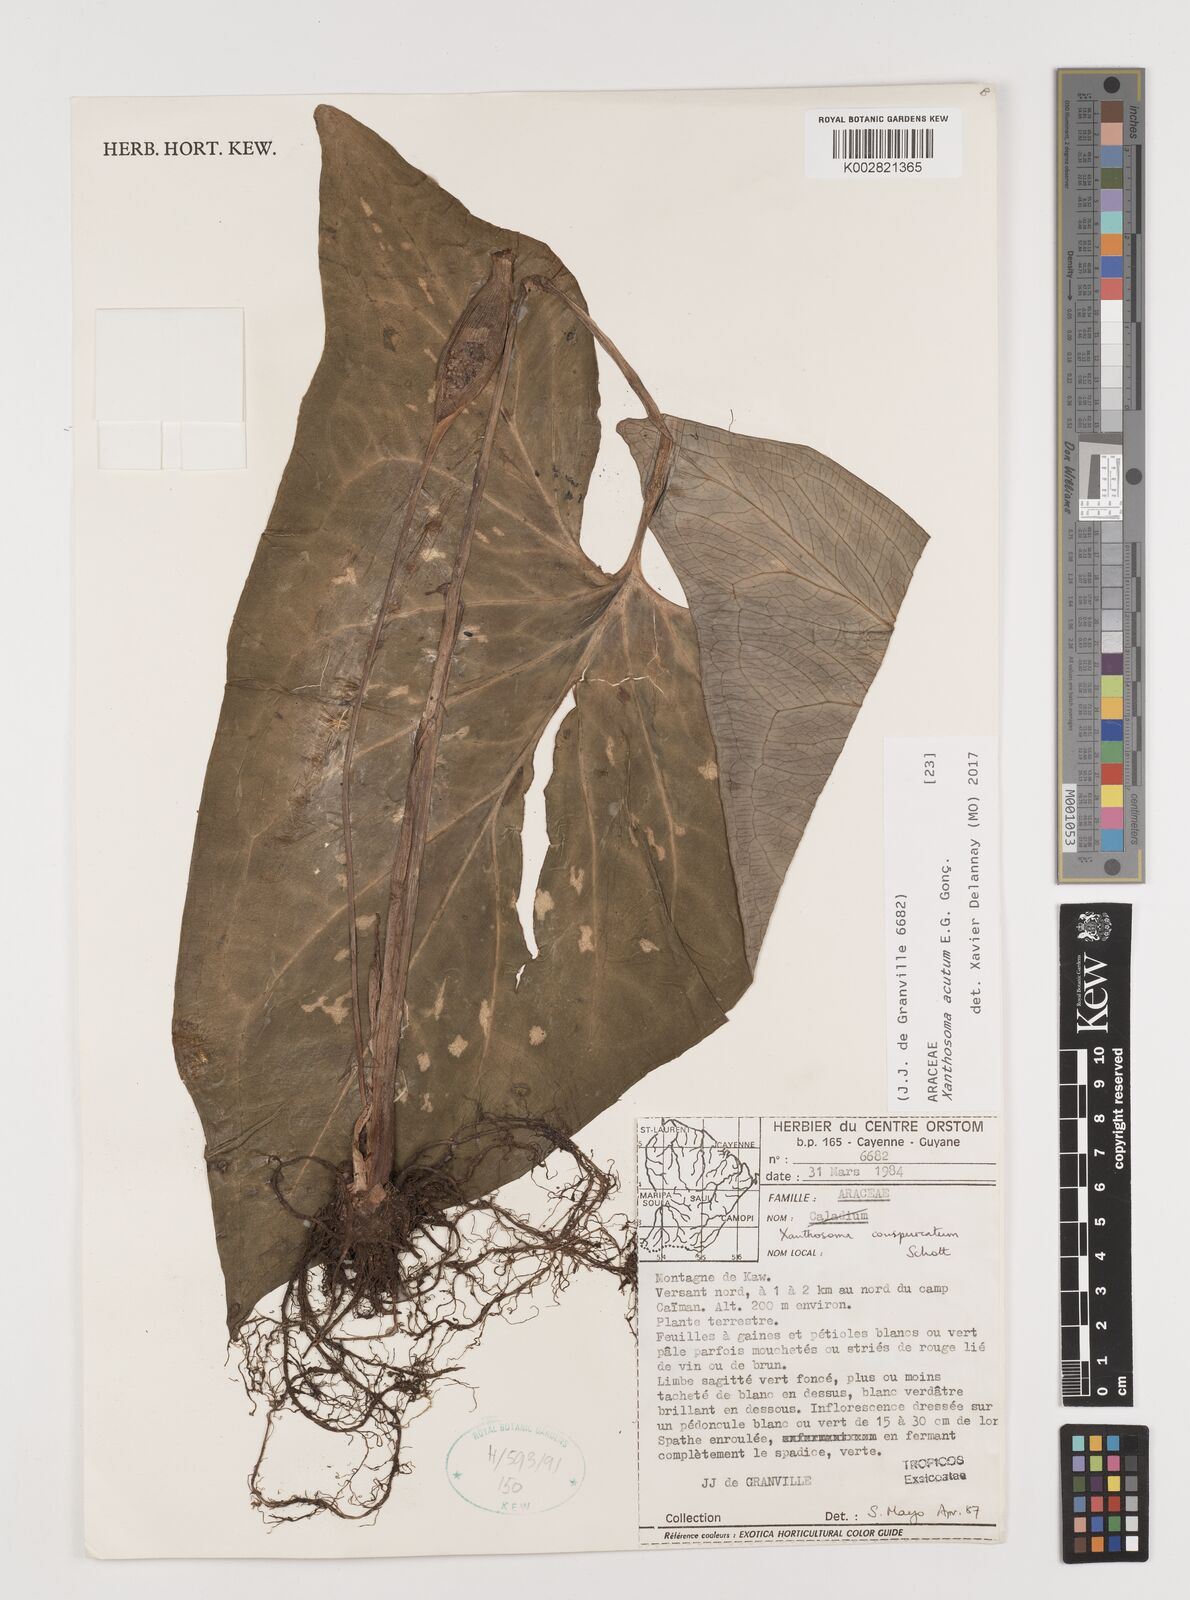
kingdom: Plantae
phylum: Tracheophyta
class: Liliopsida
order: Alismatales
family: Araceae
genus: Xanthosoma
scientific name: Xanthosoma acutum
